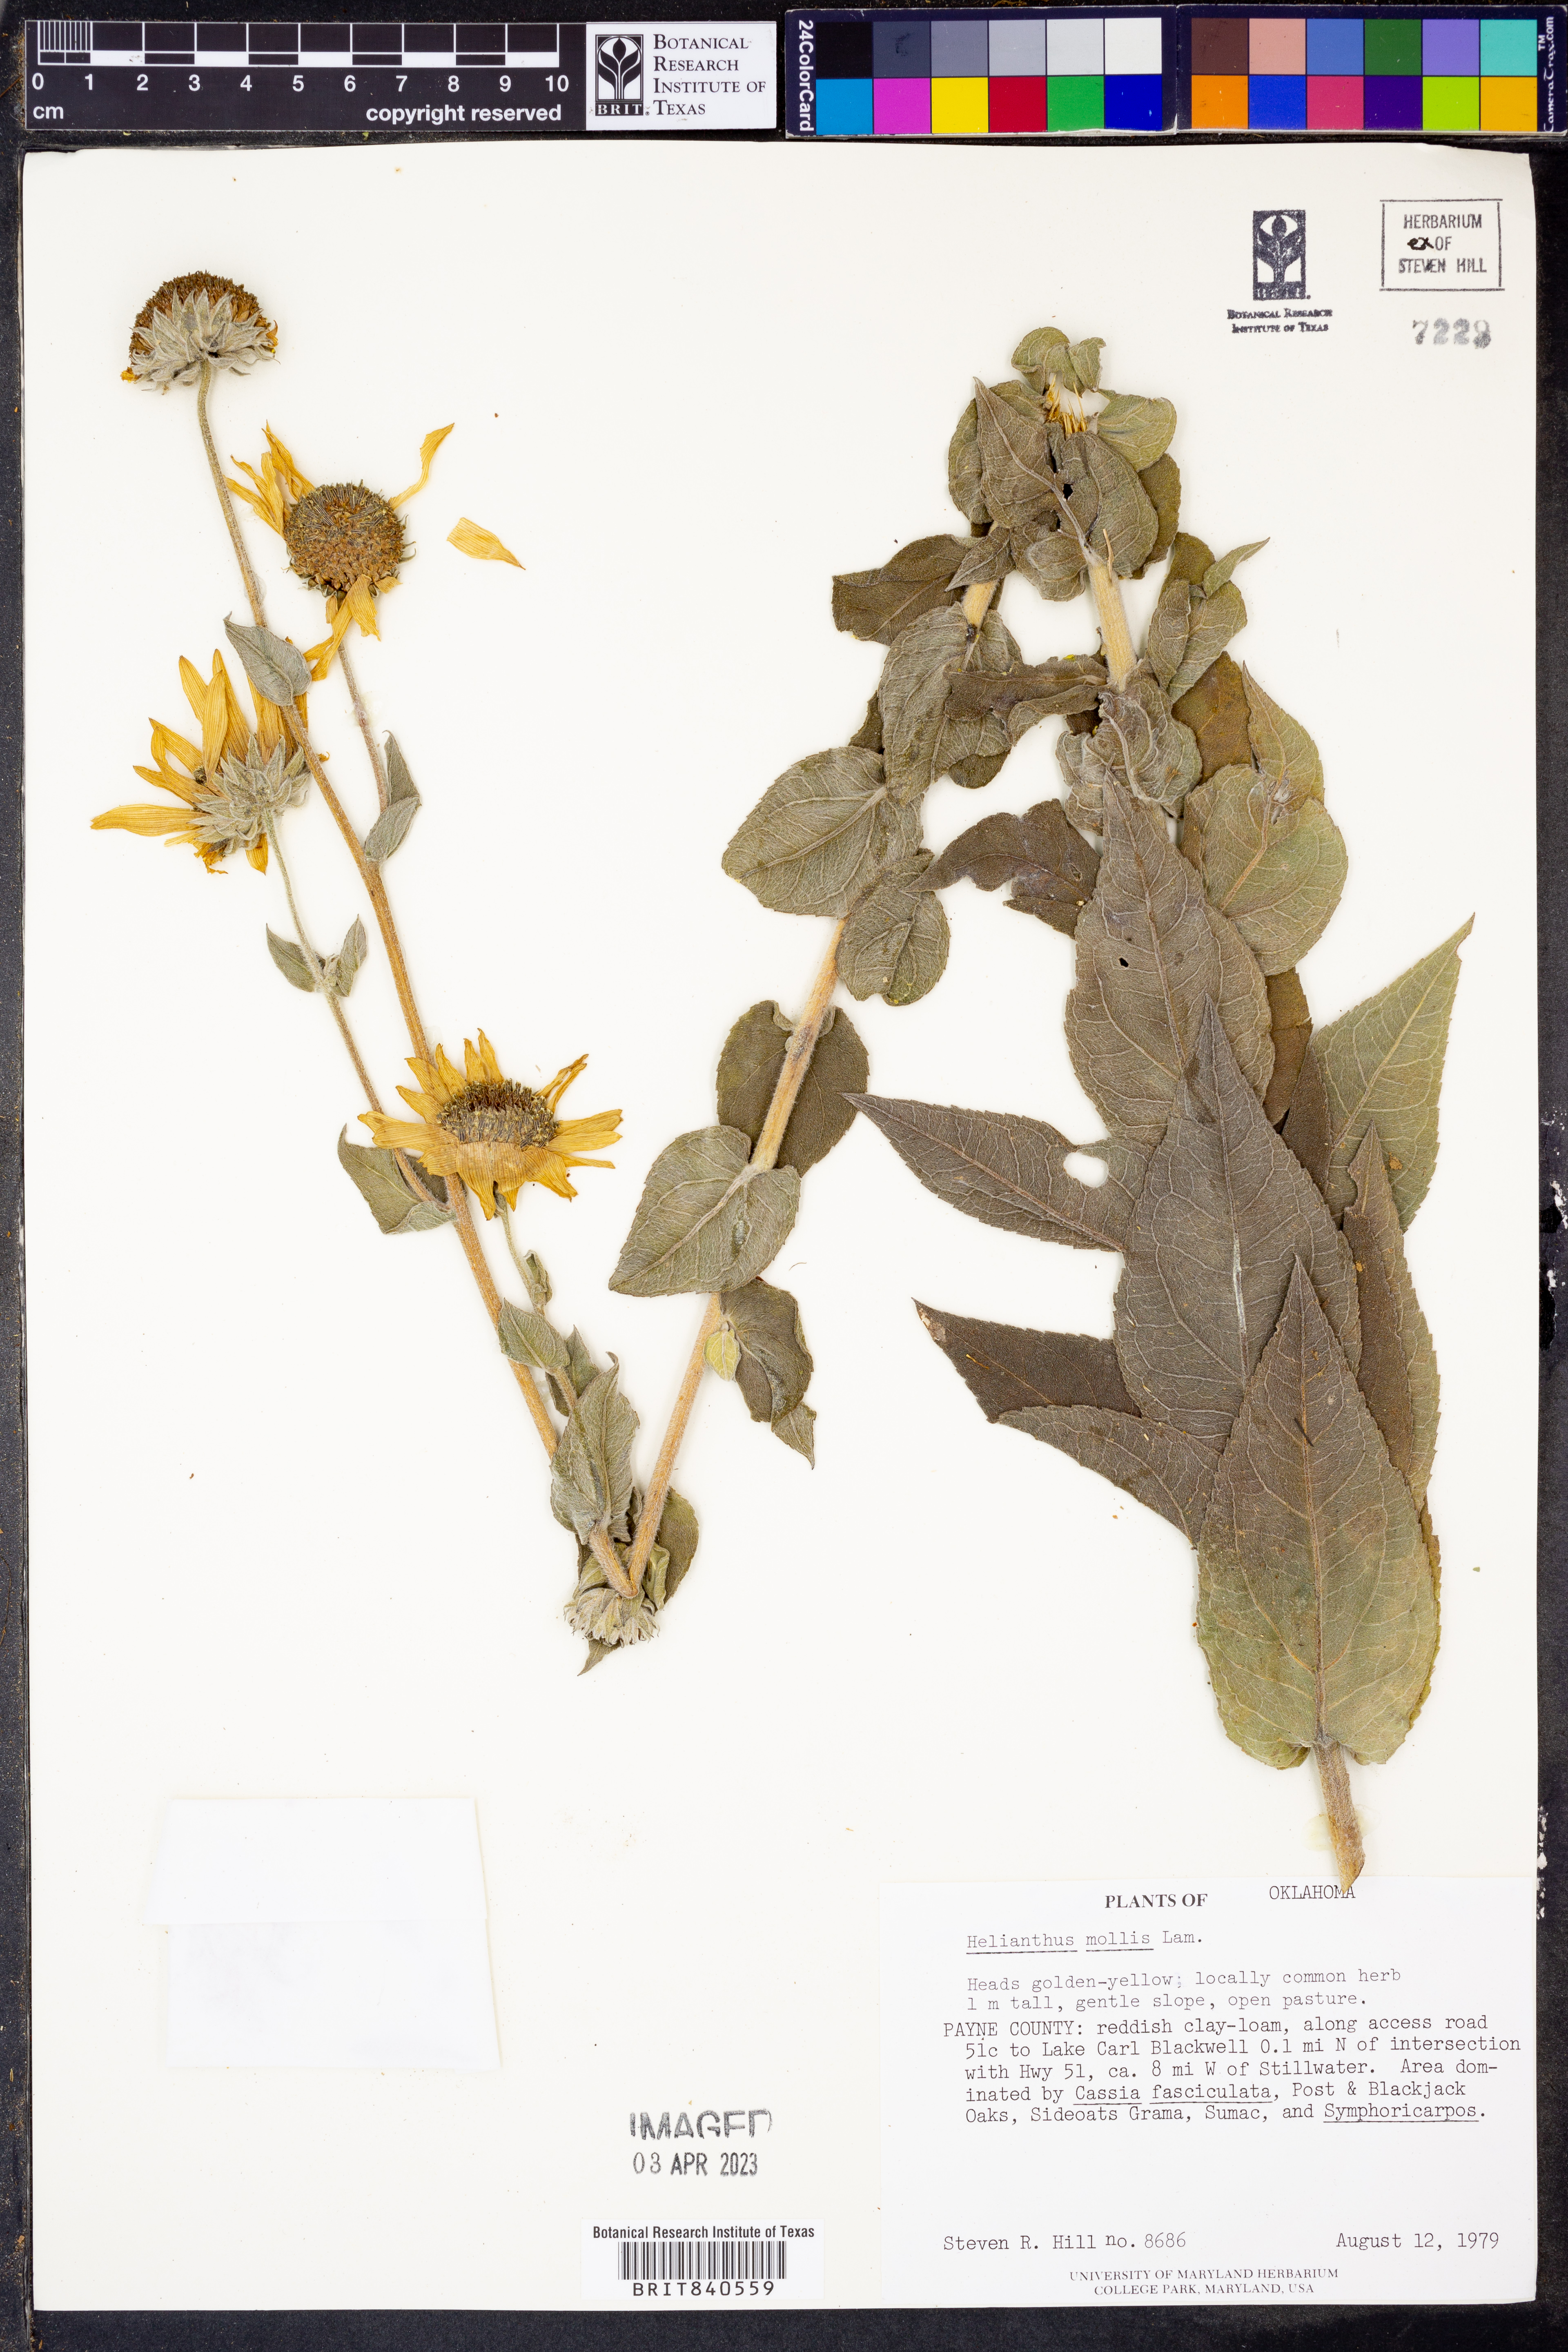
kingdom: Plantae
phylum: Tracheophyta
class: Magnoliopsida
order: Asterales
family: Asteraceae
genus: Helianthus
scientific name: Helianthus mollis
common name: Ashy sunflower
